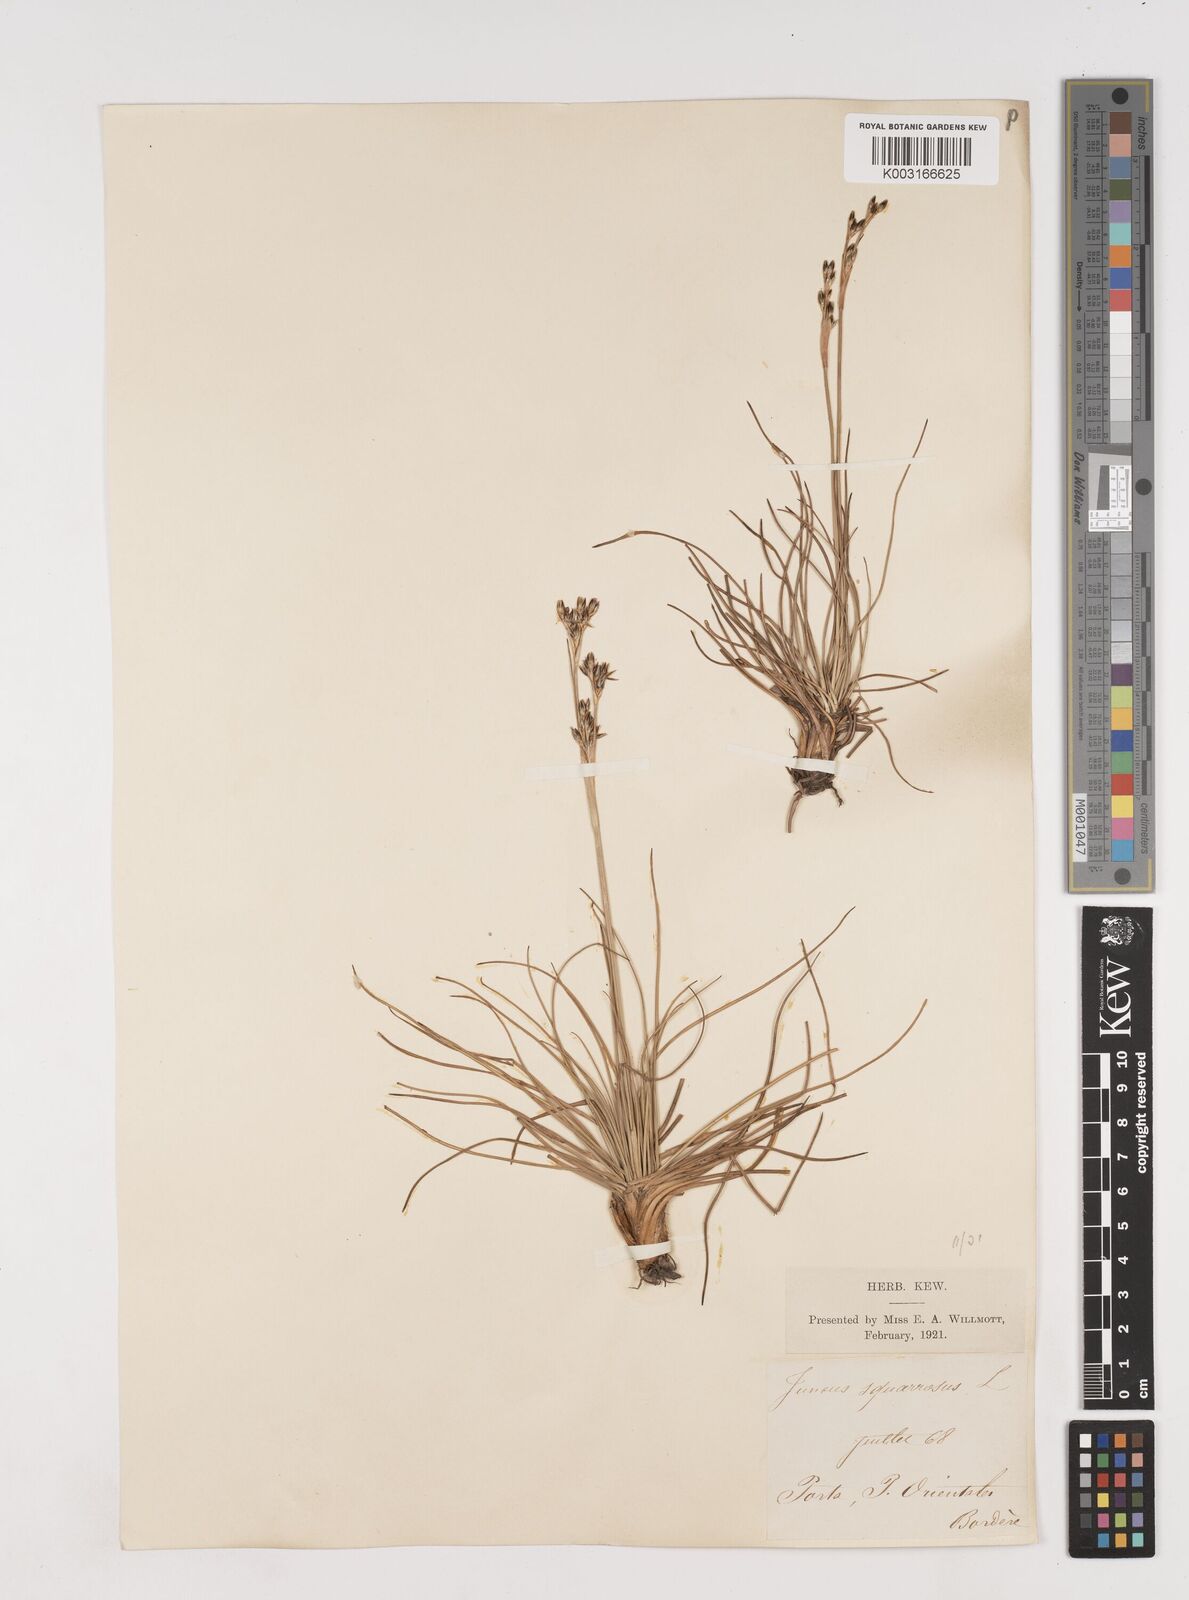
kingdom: Plantae
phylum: Tracheophyta
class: Liliopsida
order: Poales
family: Juncaceae
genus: Juncus
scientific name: Juncus squarrosus
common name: Heath rush
